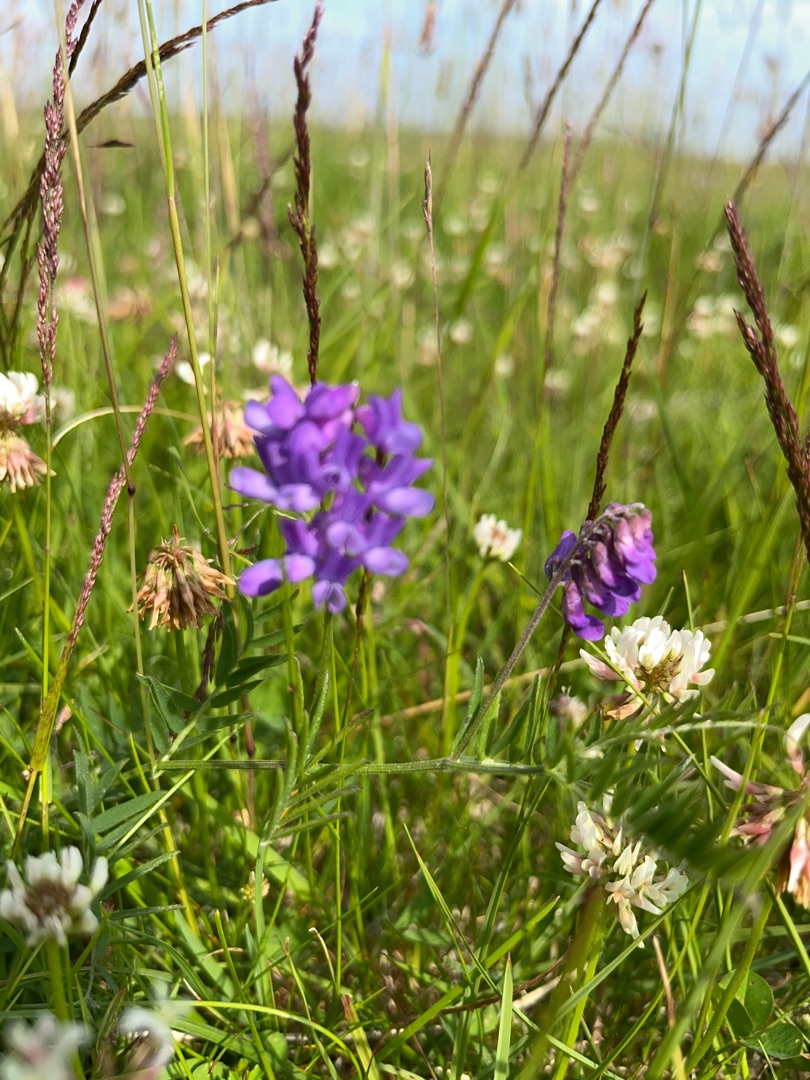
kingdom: Plantae
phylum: Tracheophyta
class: Magnoliopsida
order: Fabales
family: Fabaceae
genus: Vicia
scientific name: Vicia cracca
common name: Muse-vikke
